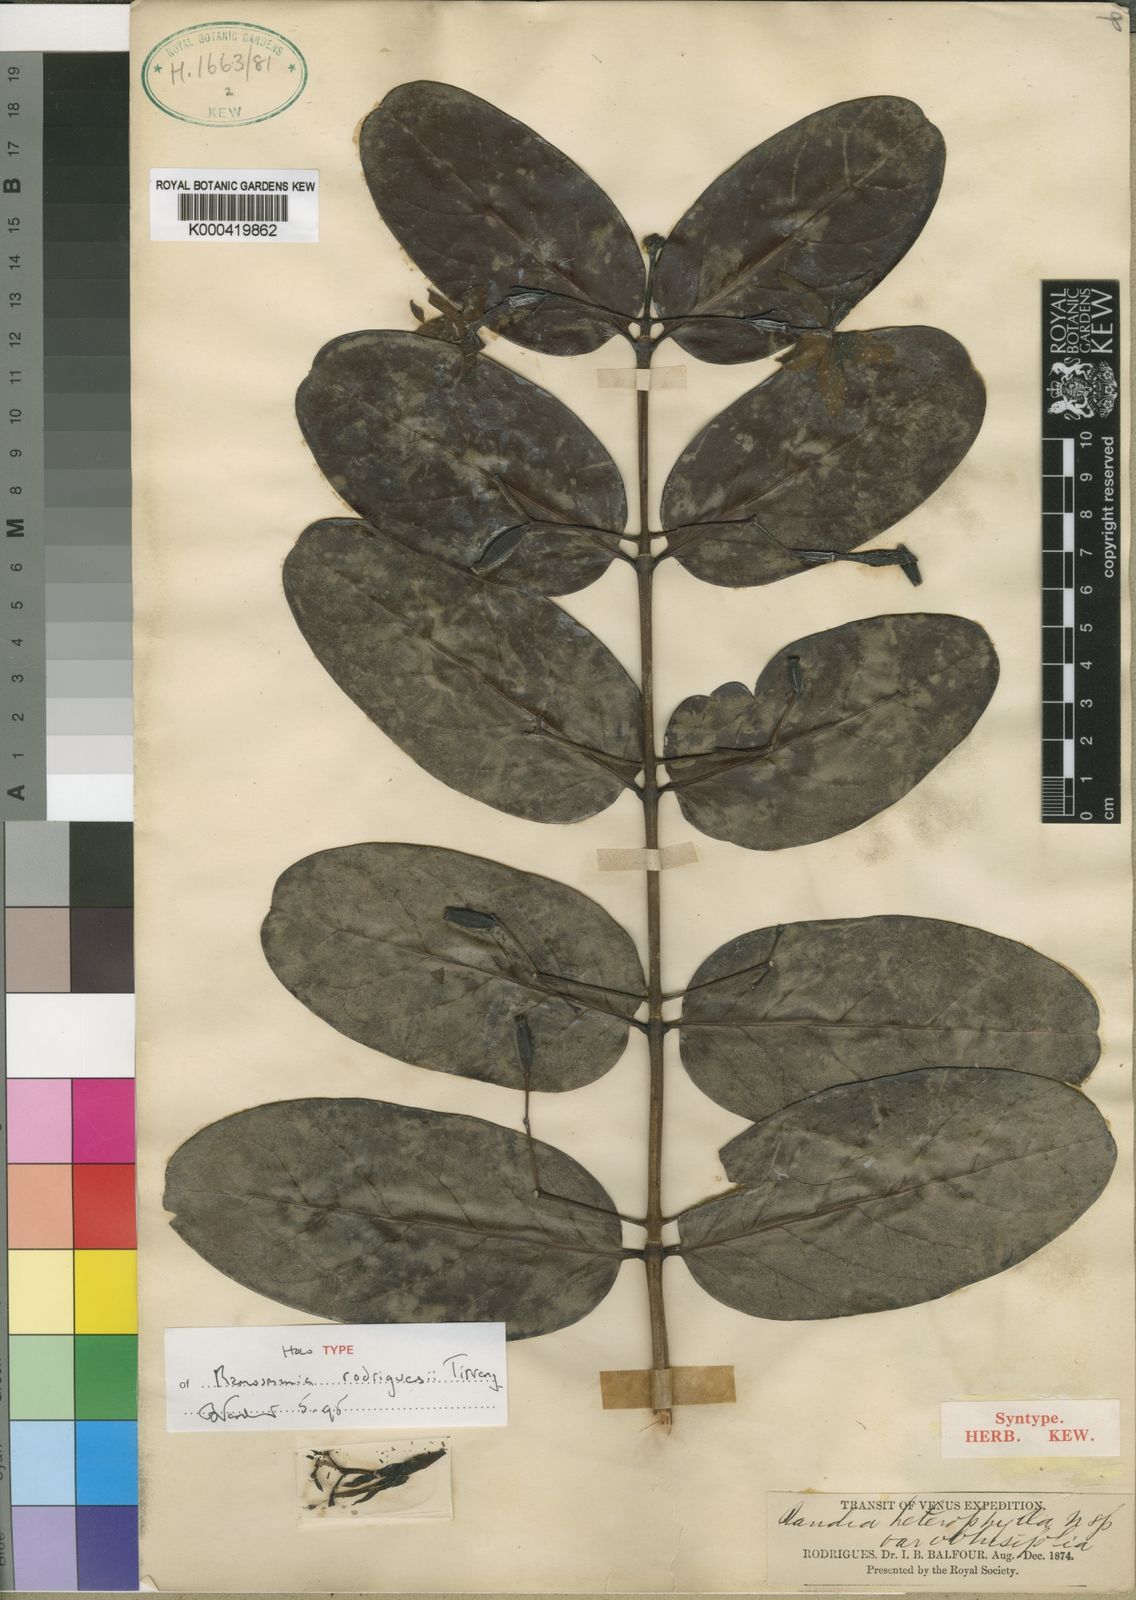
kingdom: Plantae
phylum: Tracheophyta
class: Magnoliopsida
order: Gentianales
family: Rubiaceae
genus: Ramosmania
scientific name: Ramosmania rodriguesii
